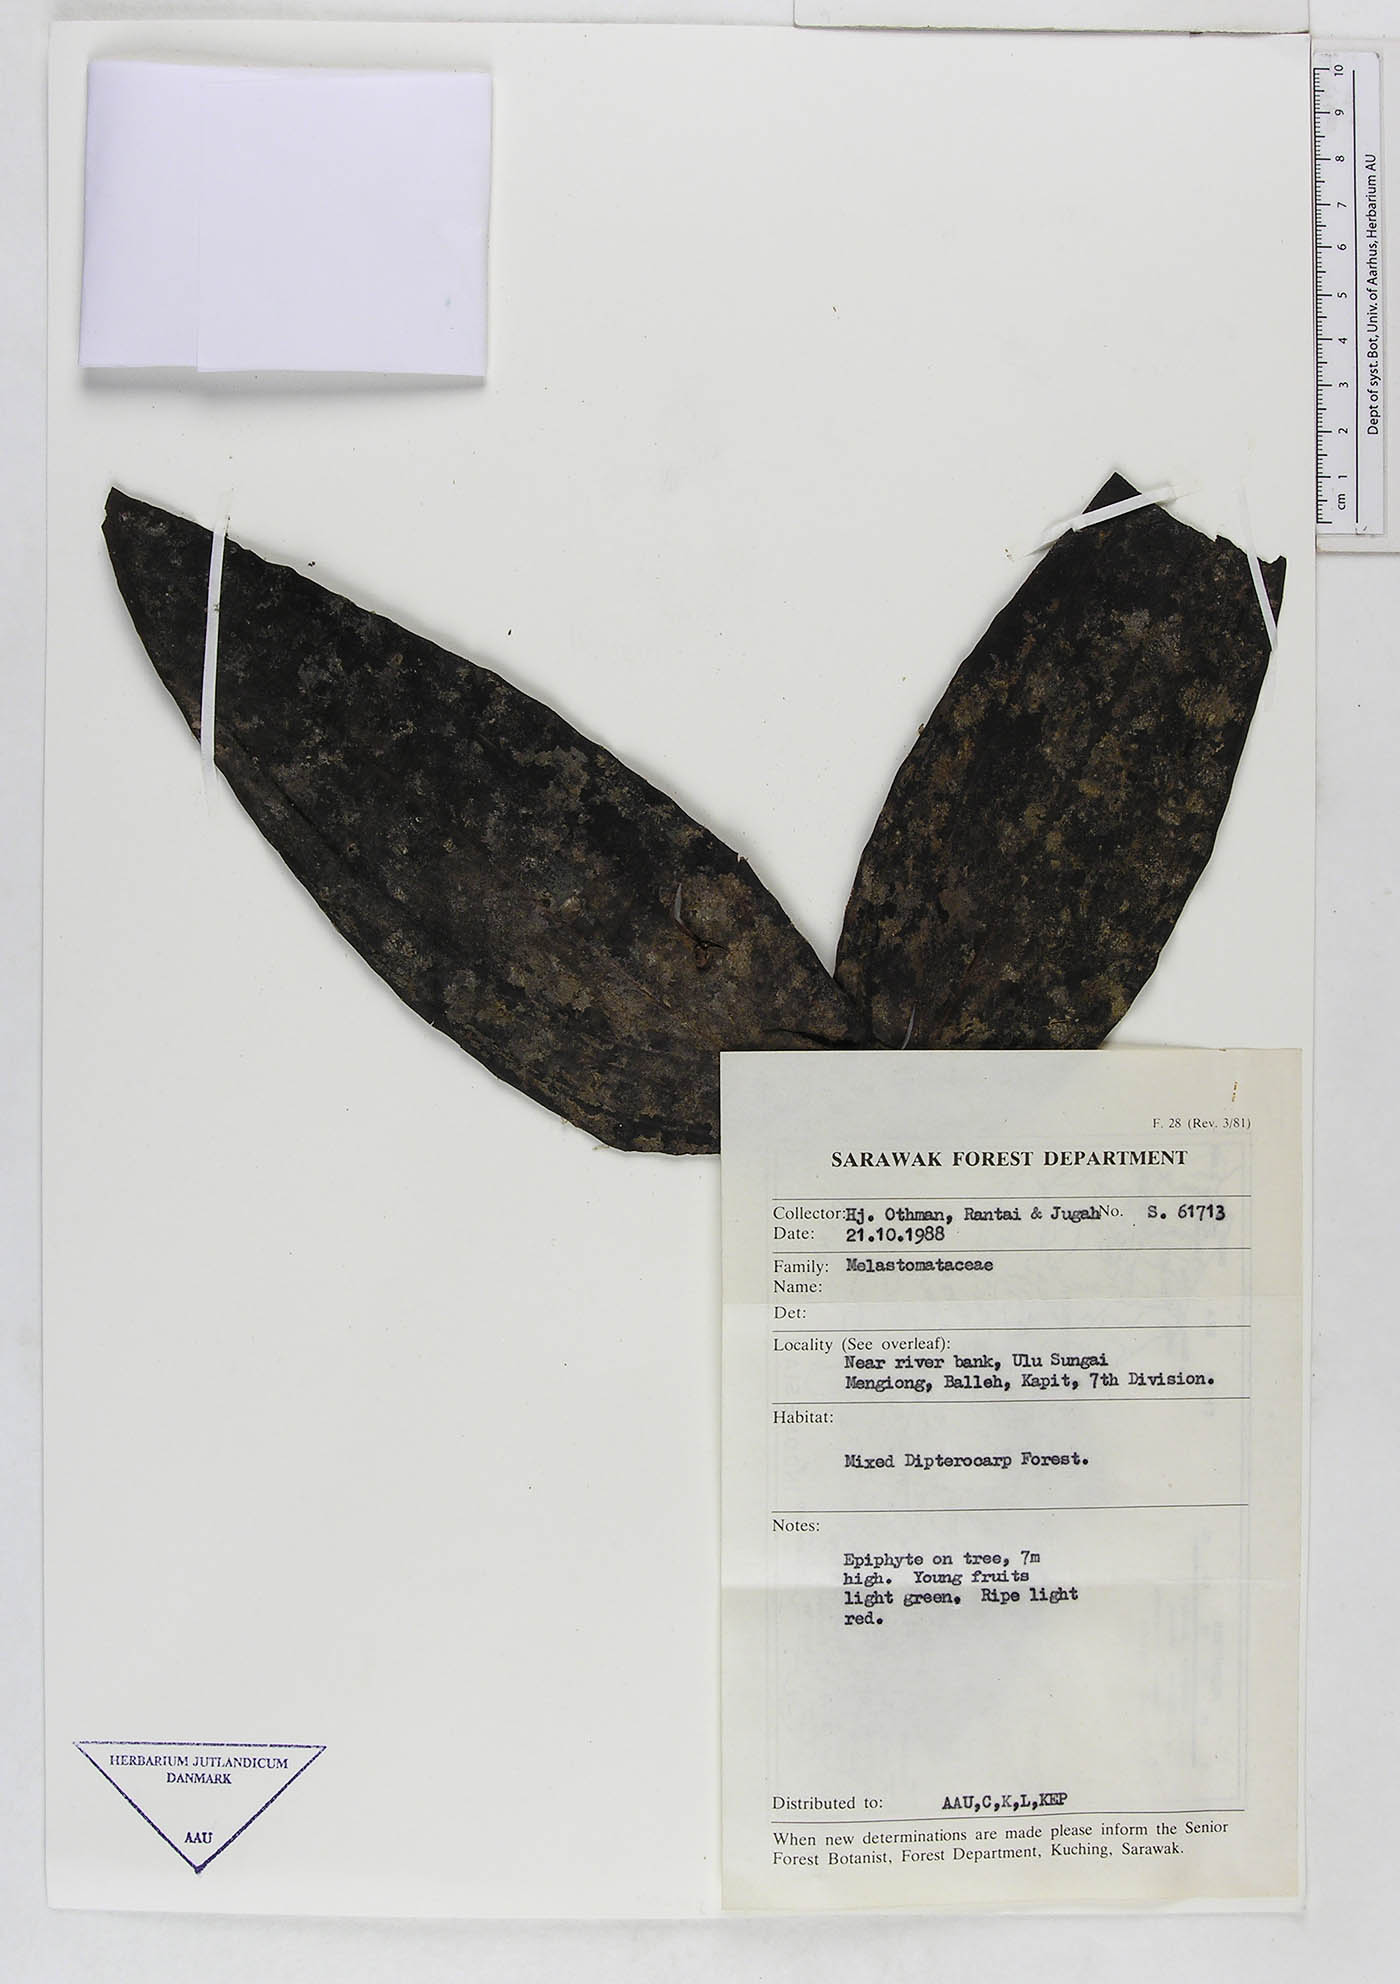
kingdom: Plantae
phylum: Tracheophyta
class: Magnoliopsida
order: Myrtales
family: Melastomataceae
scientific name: Melastomataceae
